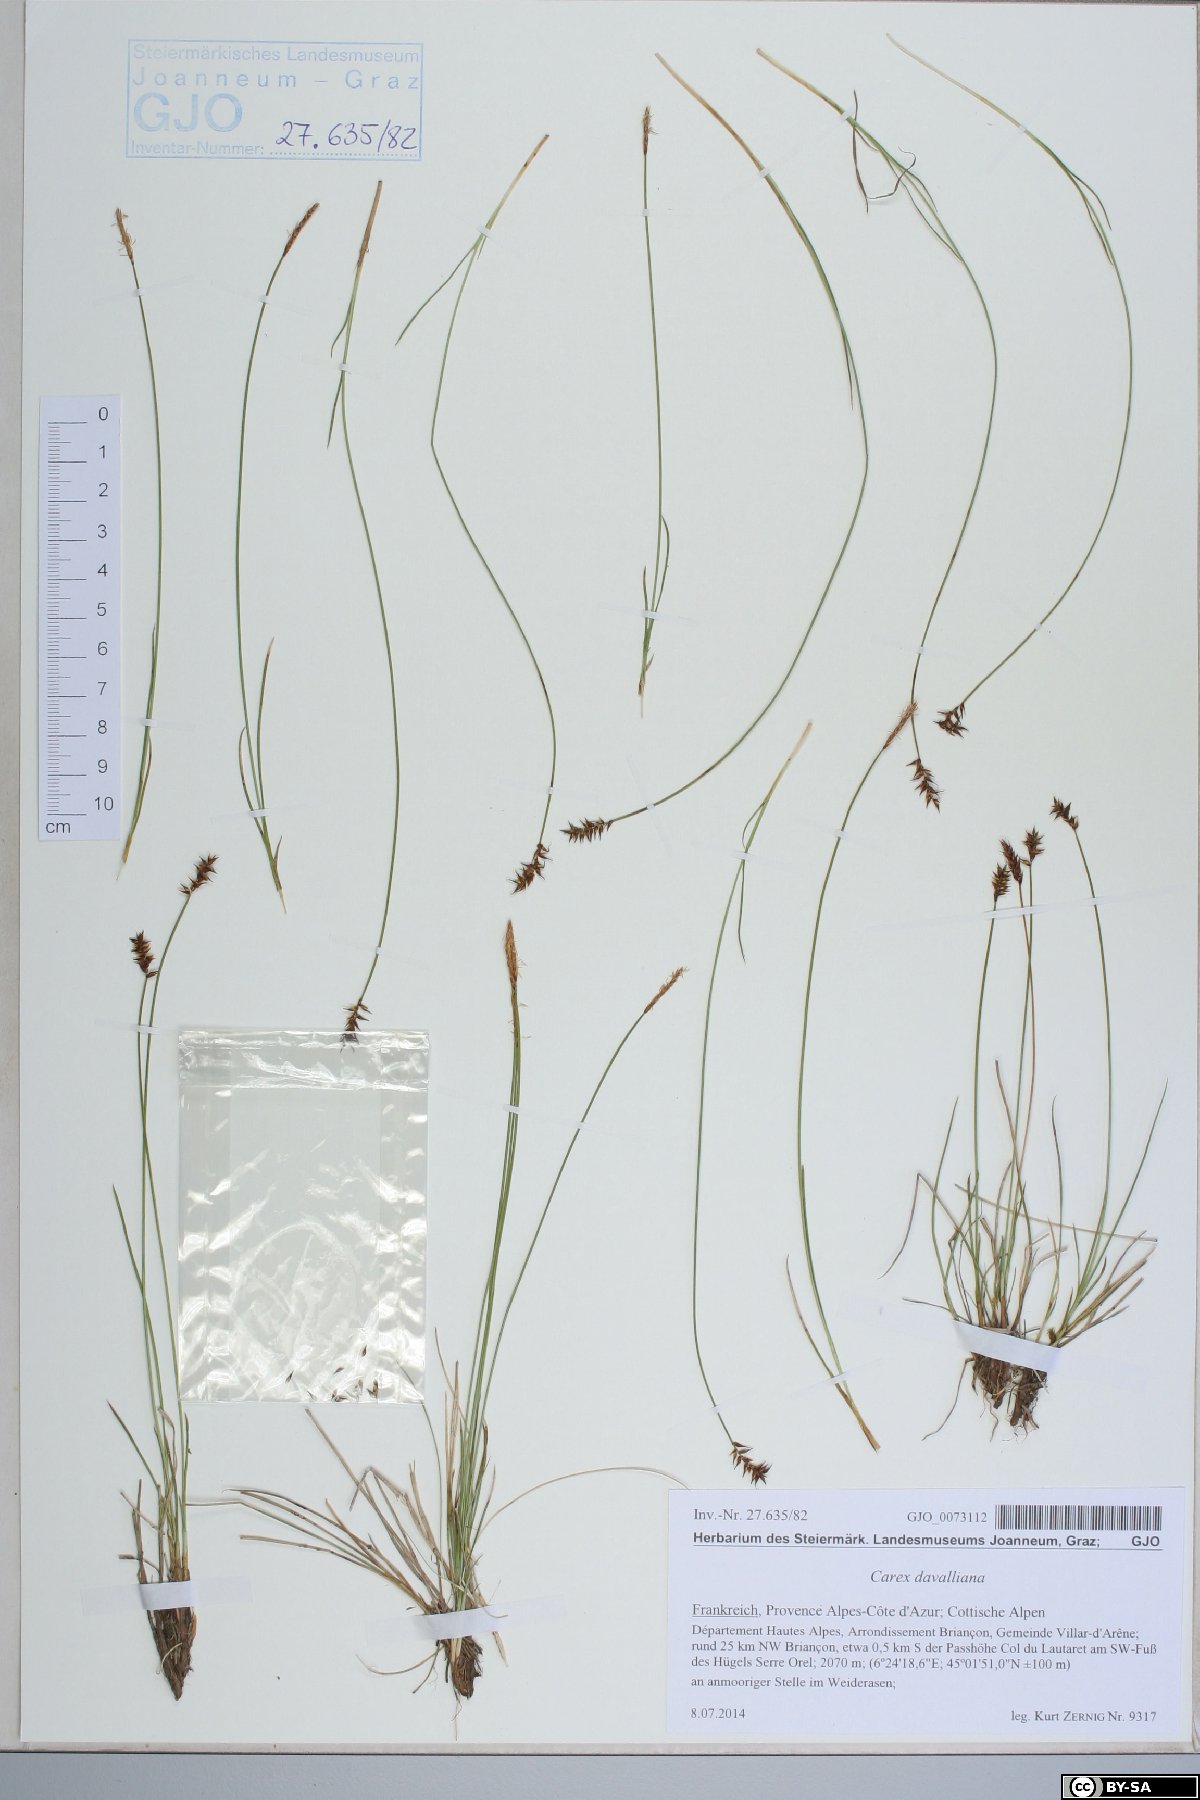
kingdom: Plantae
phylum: Tracheophyta
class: Liliopsida
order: Poales
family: Cyperaceae
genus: Carex
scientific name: Carex davalliana
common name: Davall's sedge
